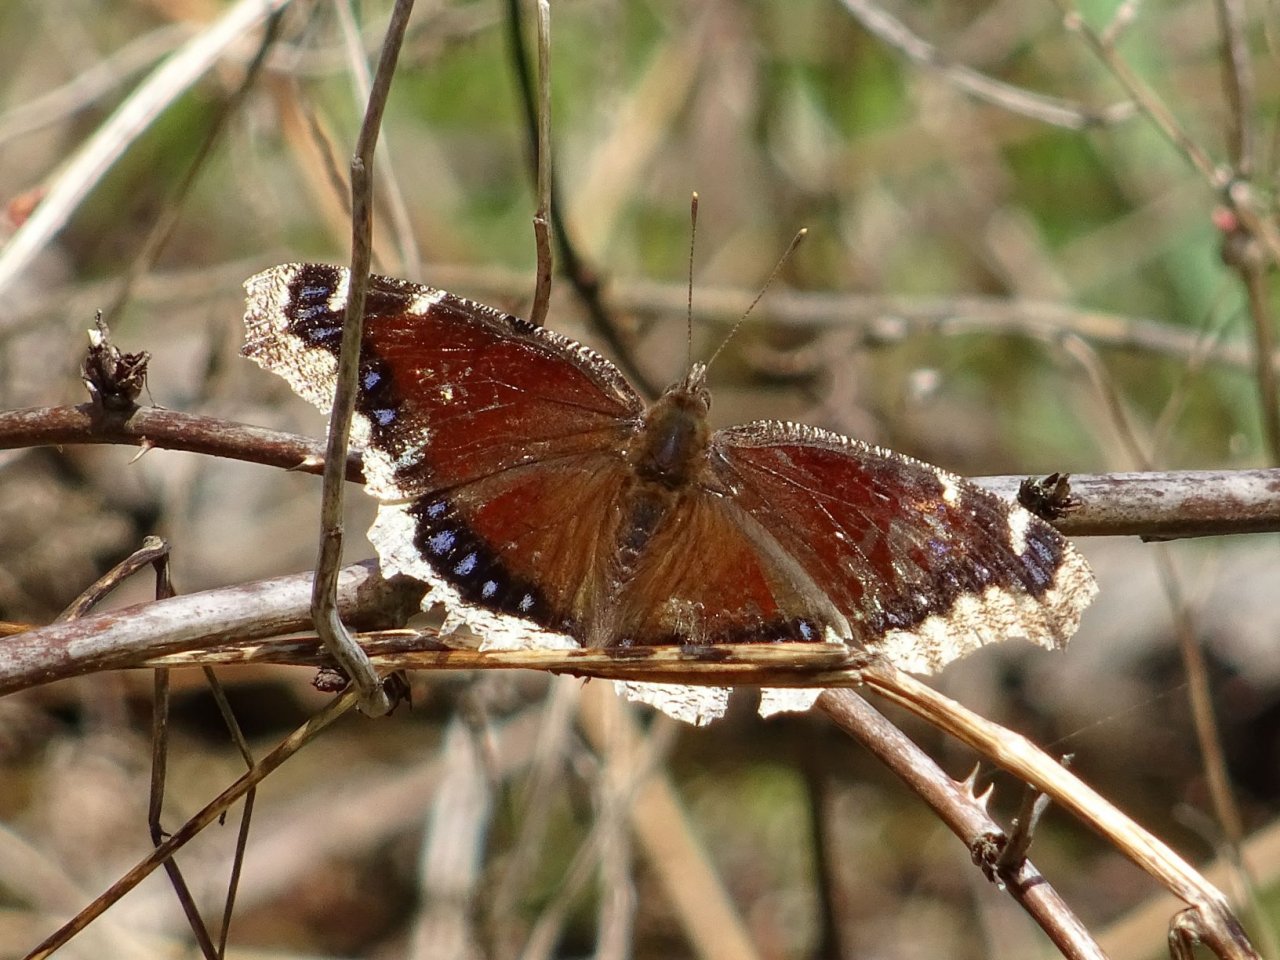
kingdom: Animalia
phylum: Arthropoda
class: Insecta
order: Lepidoptera
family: Nymphalidae
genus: Nymphalis
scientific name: Nymphalis antiopa
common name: Mourning Cloak
